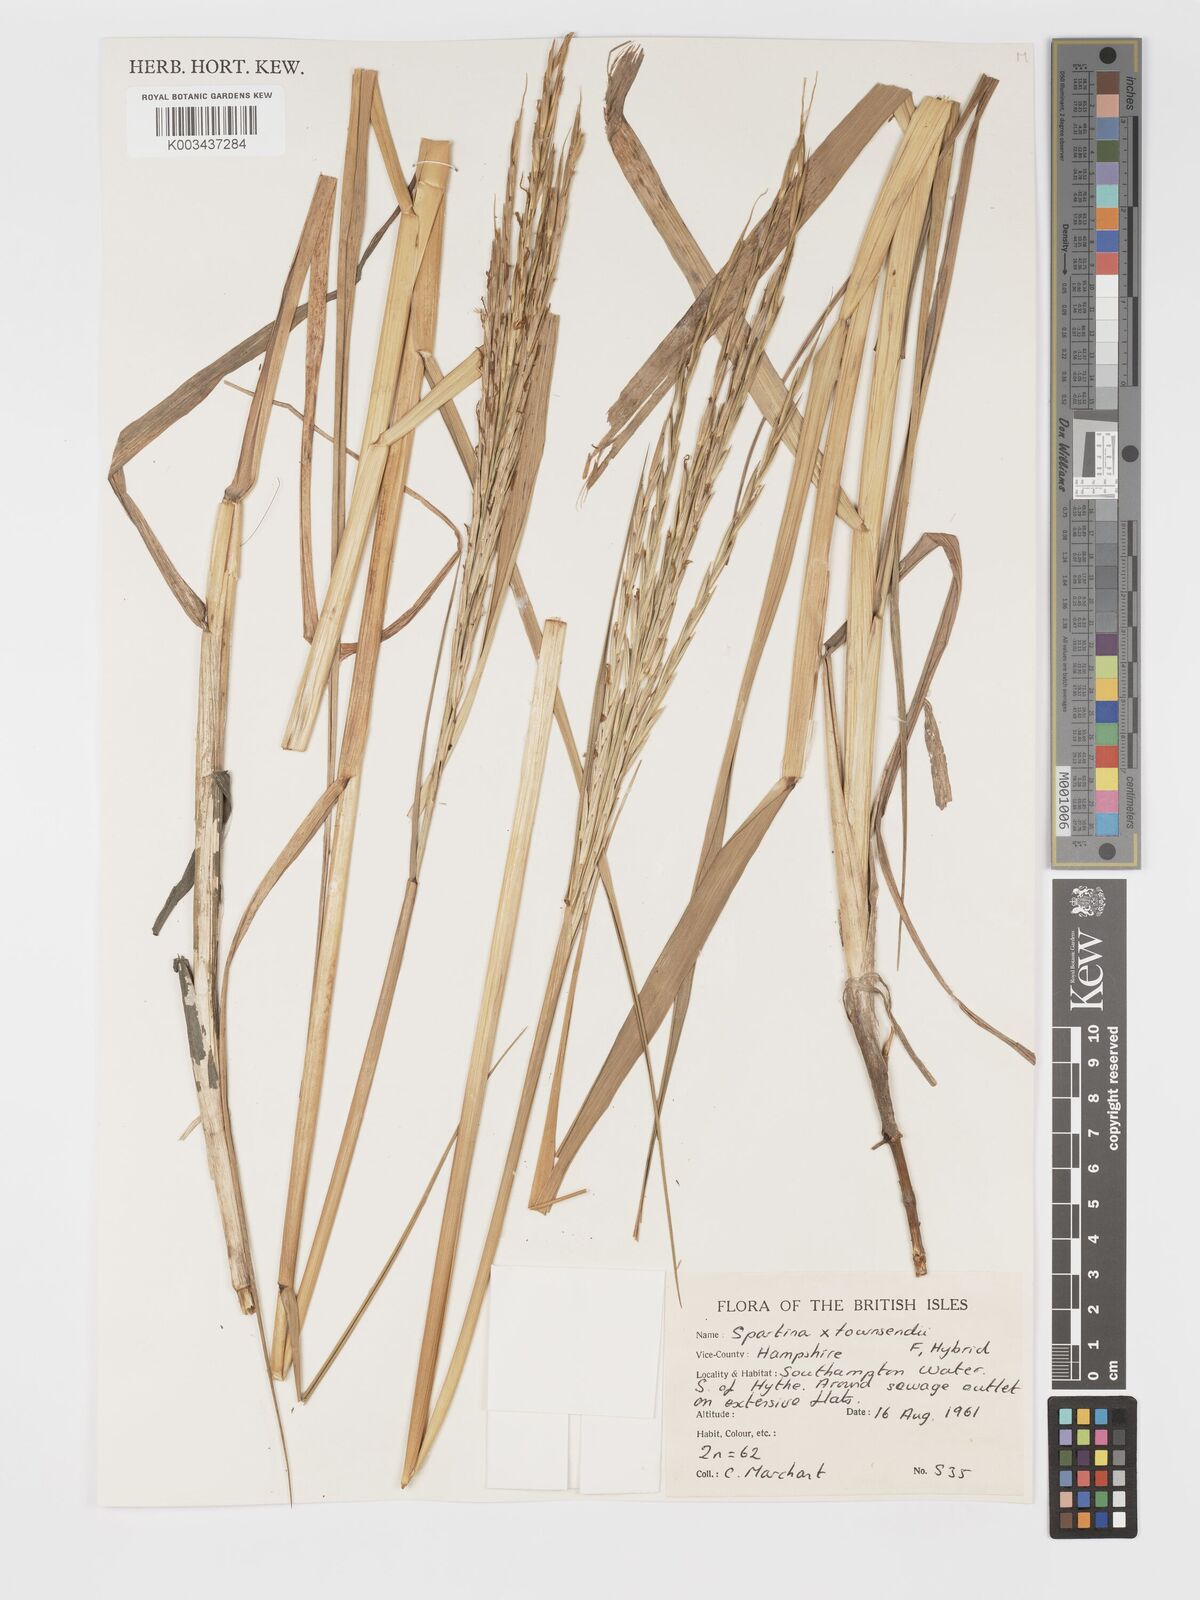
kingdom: Plantae
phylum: Tracheophyta
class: Liliopsida
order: Poales
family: Poaceae
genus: Sporobolus
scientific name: Sporobolus townsendii
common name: Townsend's cordgrass
